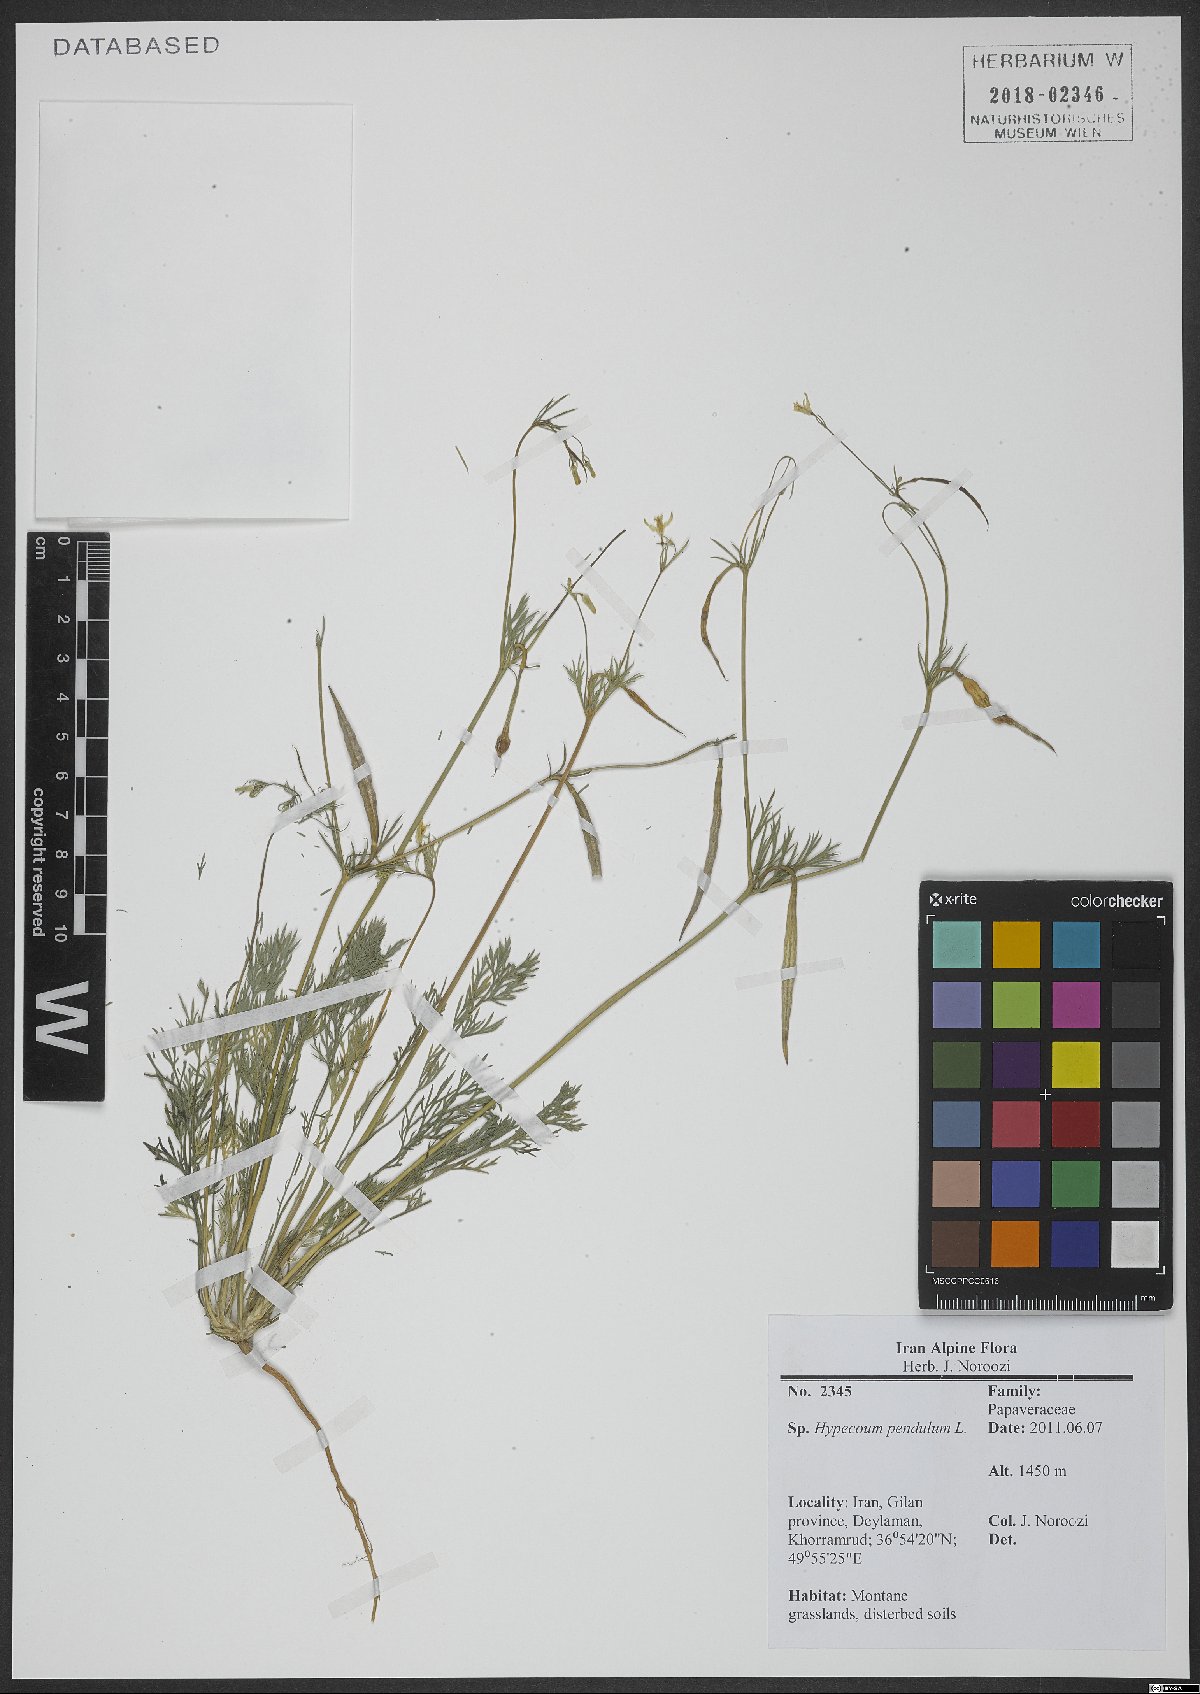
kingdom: Plantae
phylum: Tracheophyta
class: Magnoliopsida
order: Ranunculales
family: Papaveraceae
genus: Hypecoum
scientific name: Hypecoum pendulum
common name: Nodding hypecoum
